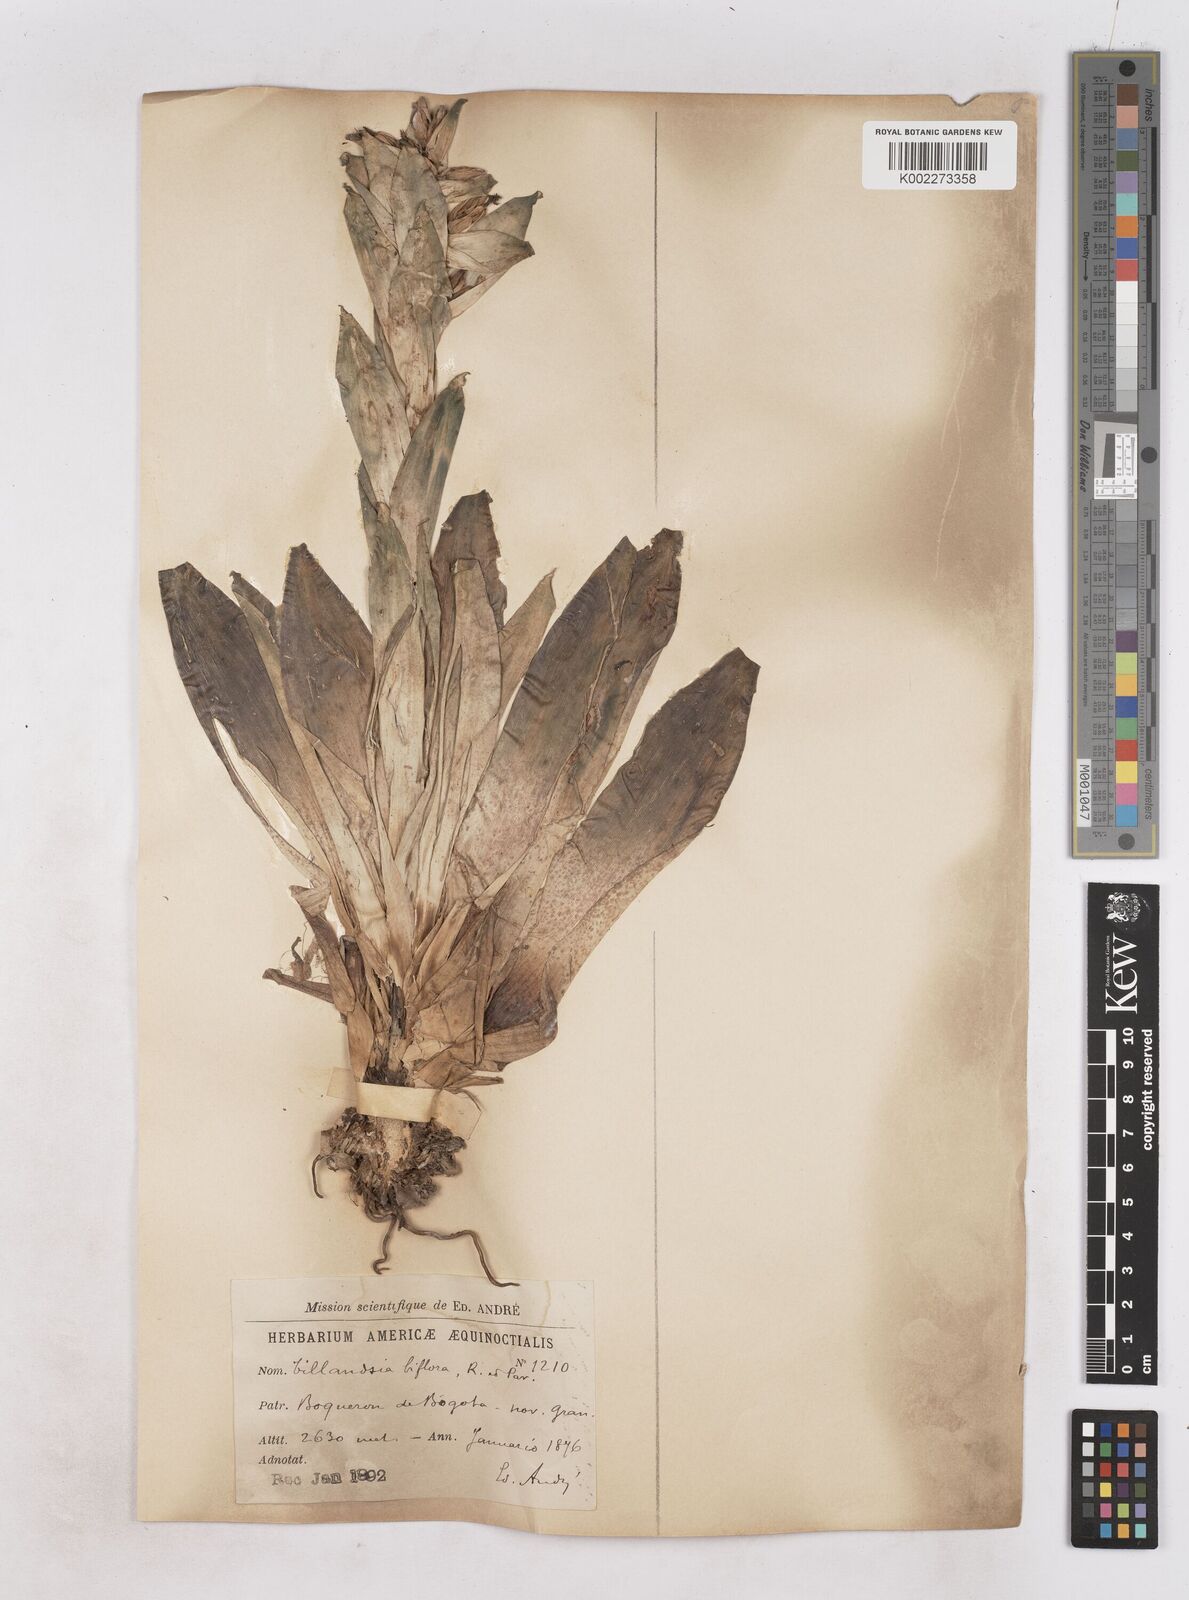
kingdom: Plantae
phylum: Tracheophyta
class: Liliopsida
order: Poales
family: Bromeliaceae
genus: Tillandsia
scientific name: Tillandsia biflora
